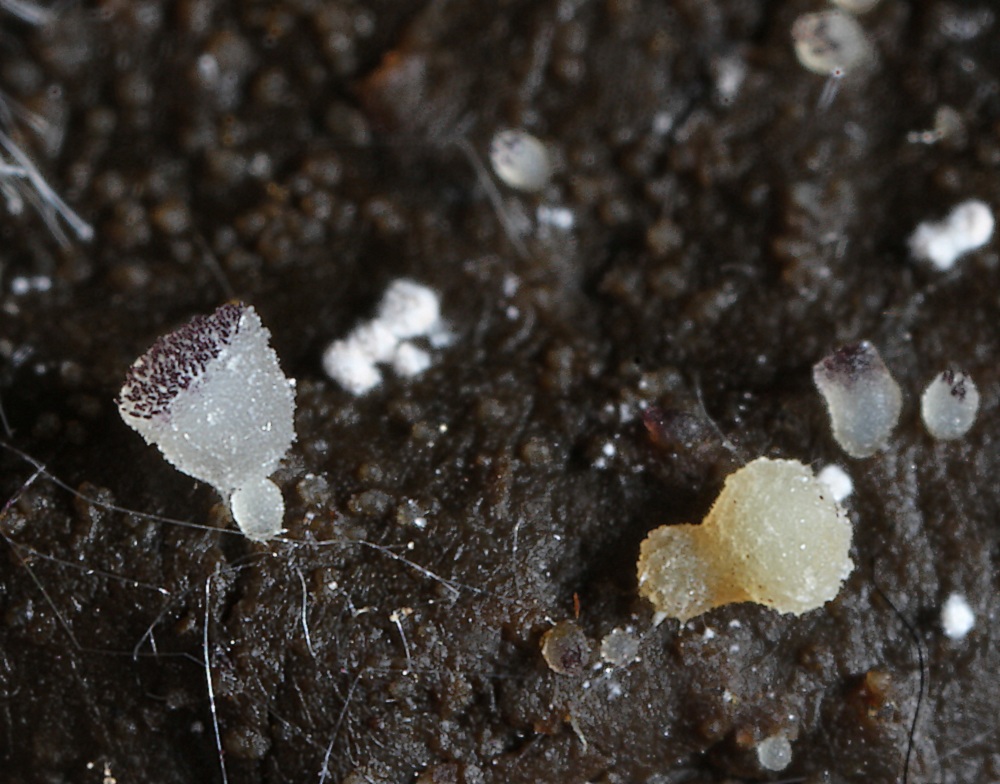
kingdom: Fungi
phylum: Ascomycota
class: Pezizomycetes
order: Pezizales
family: Ascobolaceae
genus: Ascobolus
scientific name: Ascobolus
